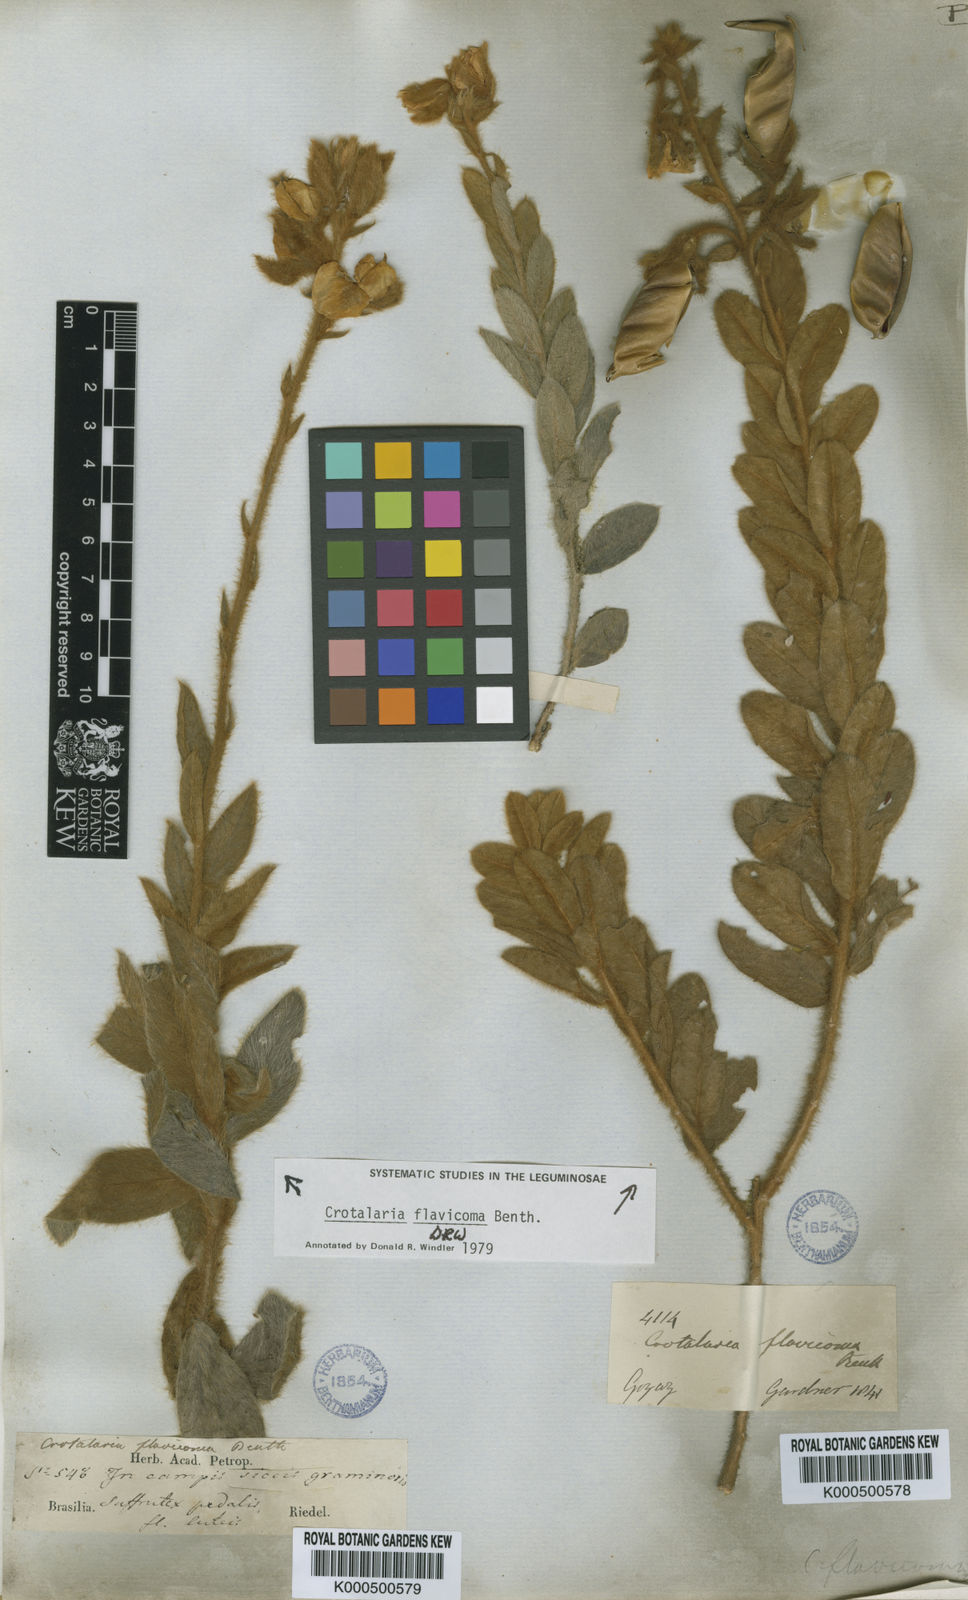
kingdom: Plantae
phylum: Tracheophyta
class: Magnoliopsida
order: Fabales
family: Fabaceae
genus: Crotalaria
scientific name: Crotalaria flavicoma
